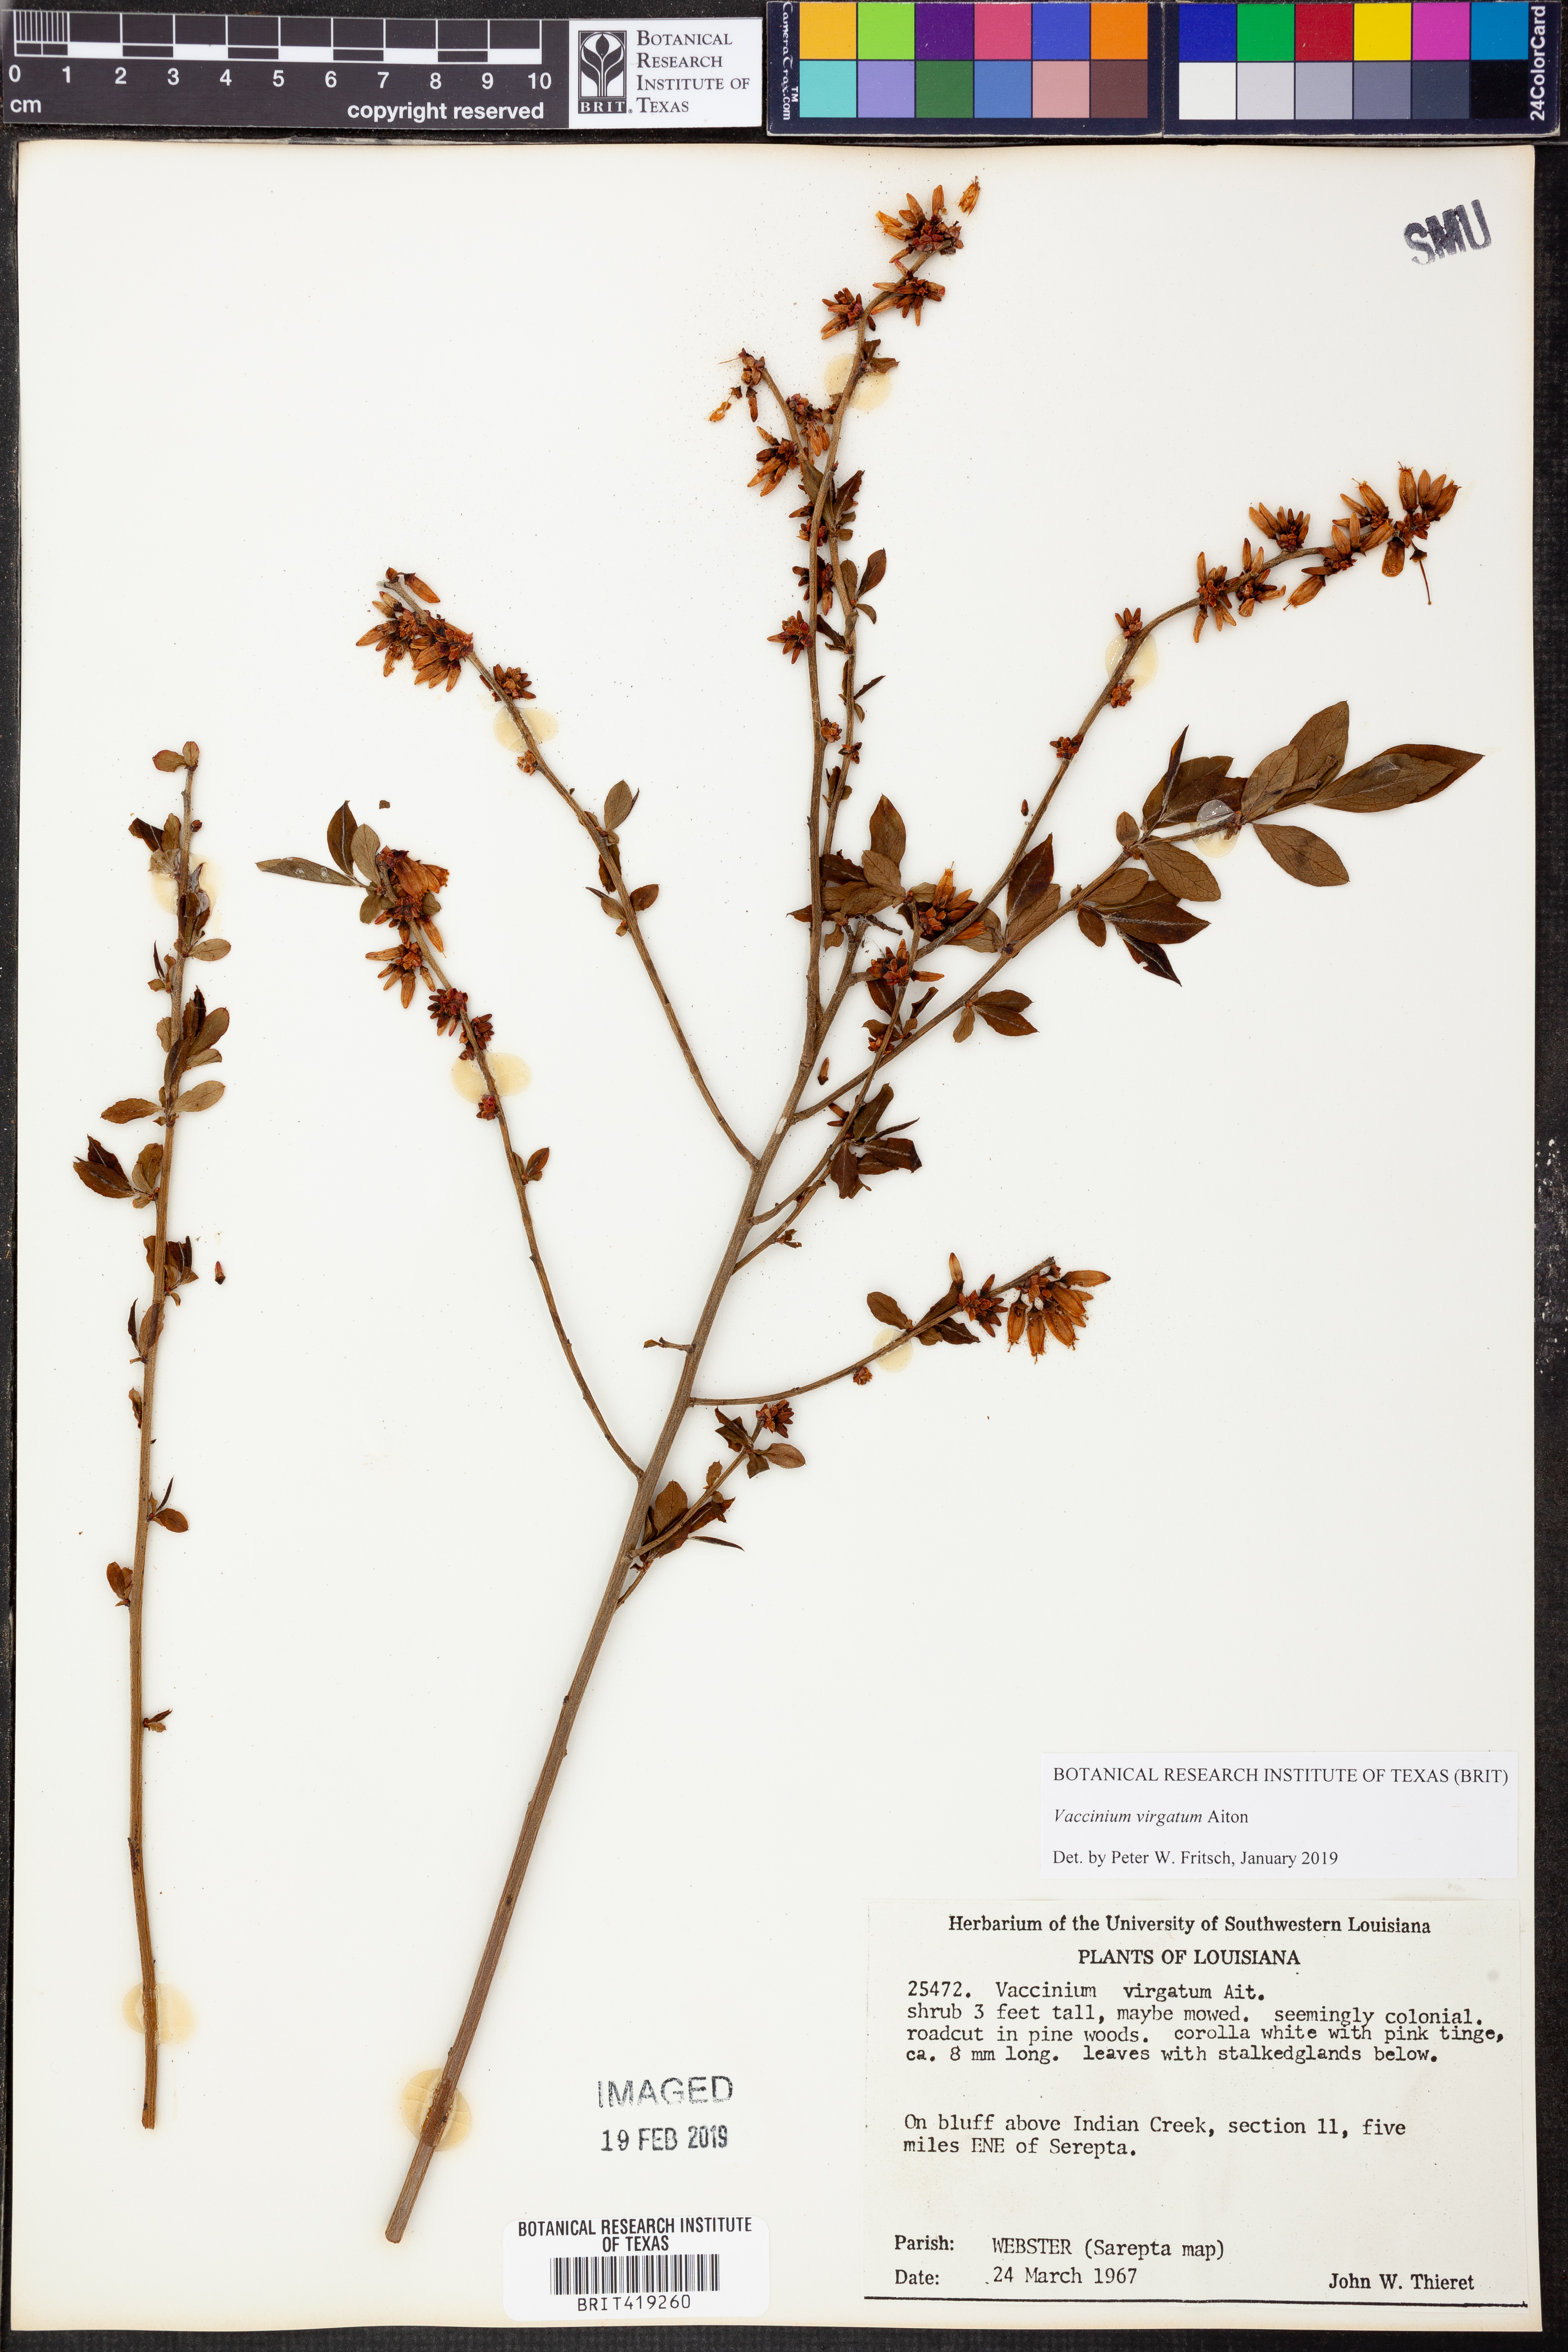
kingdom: Plantae
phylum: Tracheophyta
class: Magnoliopsida
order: Ericales
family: Ericaceae
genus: Vaccinium
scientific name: Vaccinium corymbosum
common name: Blueberry
